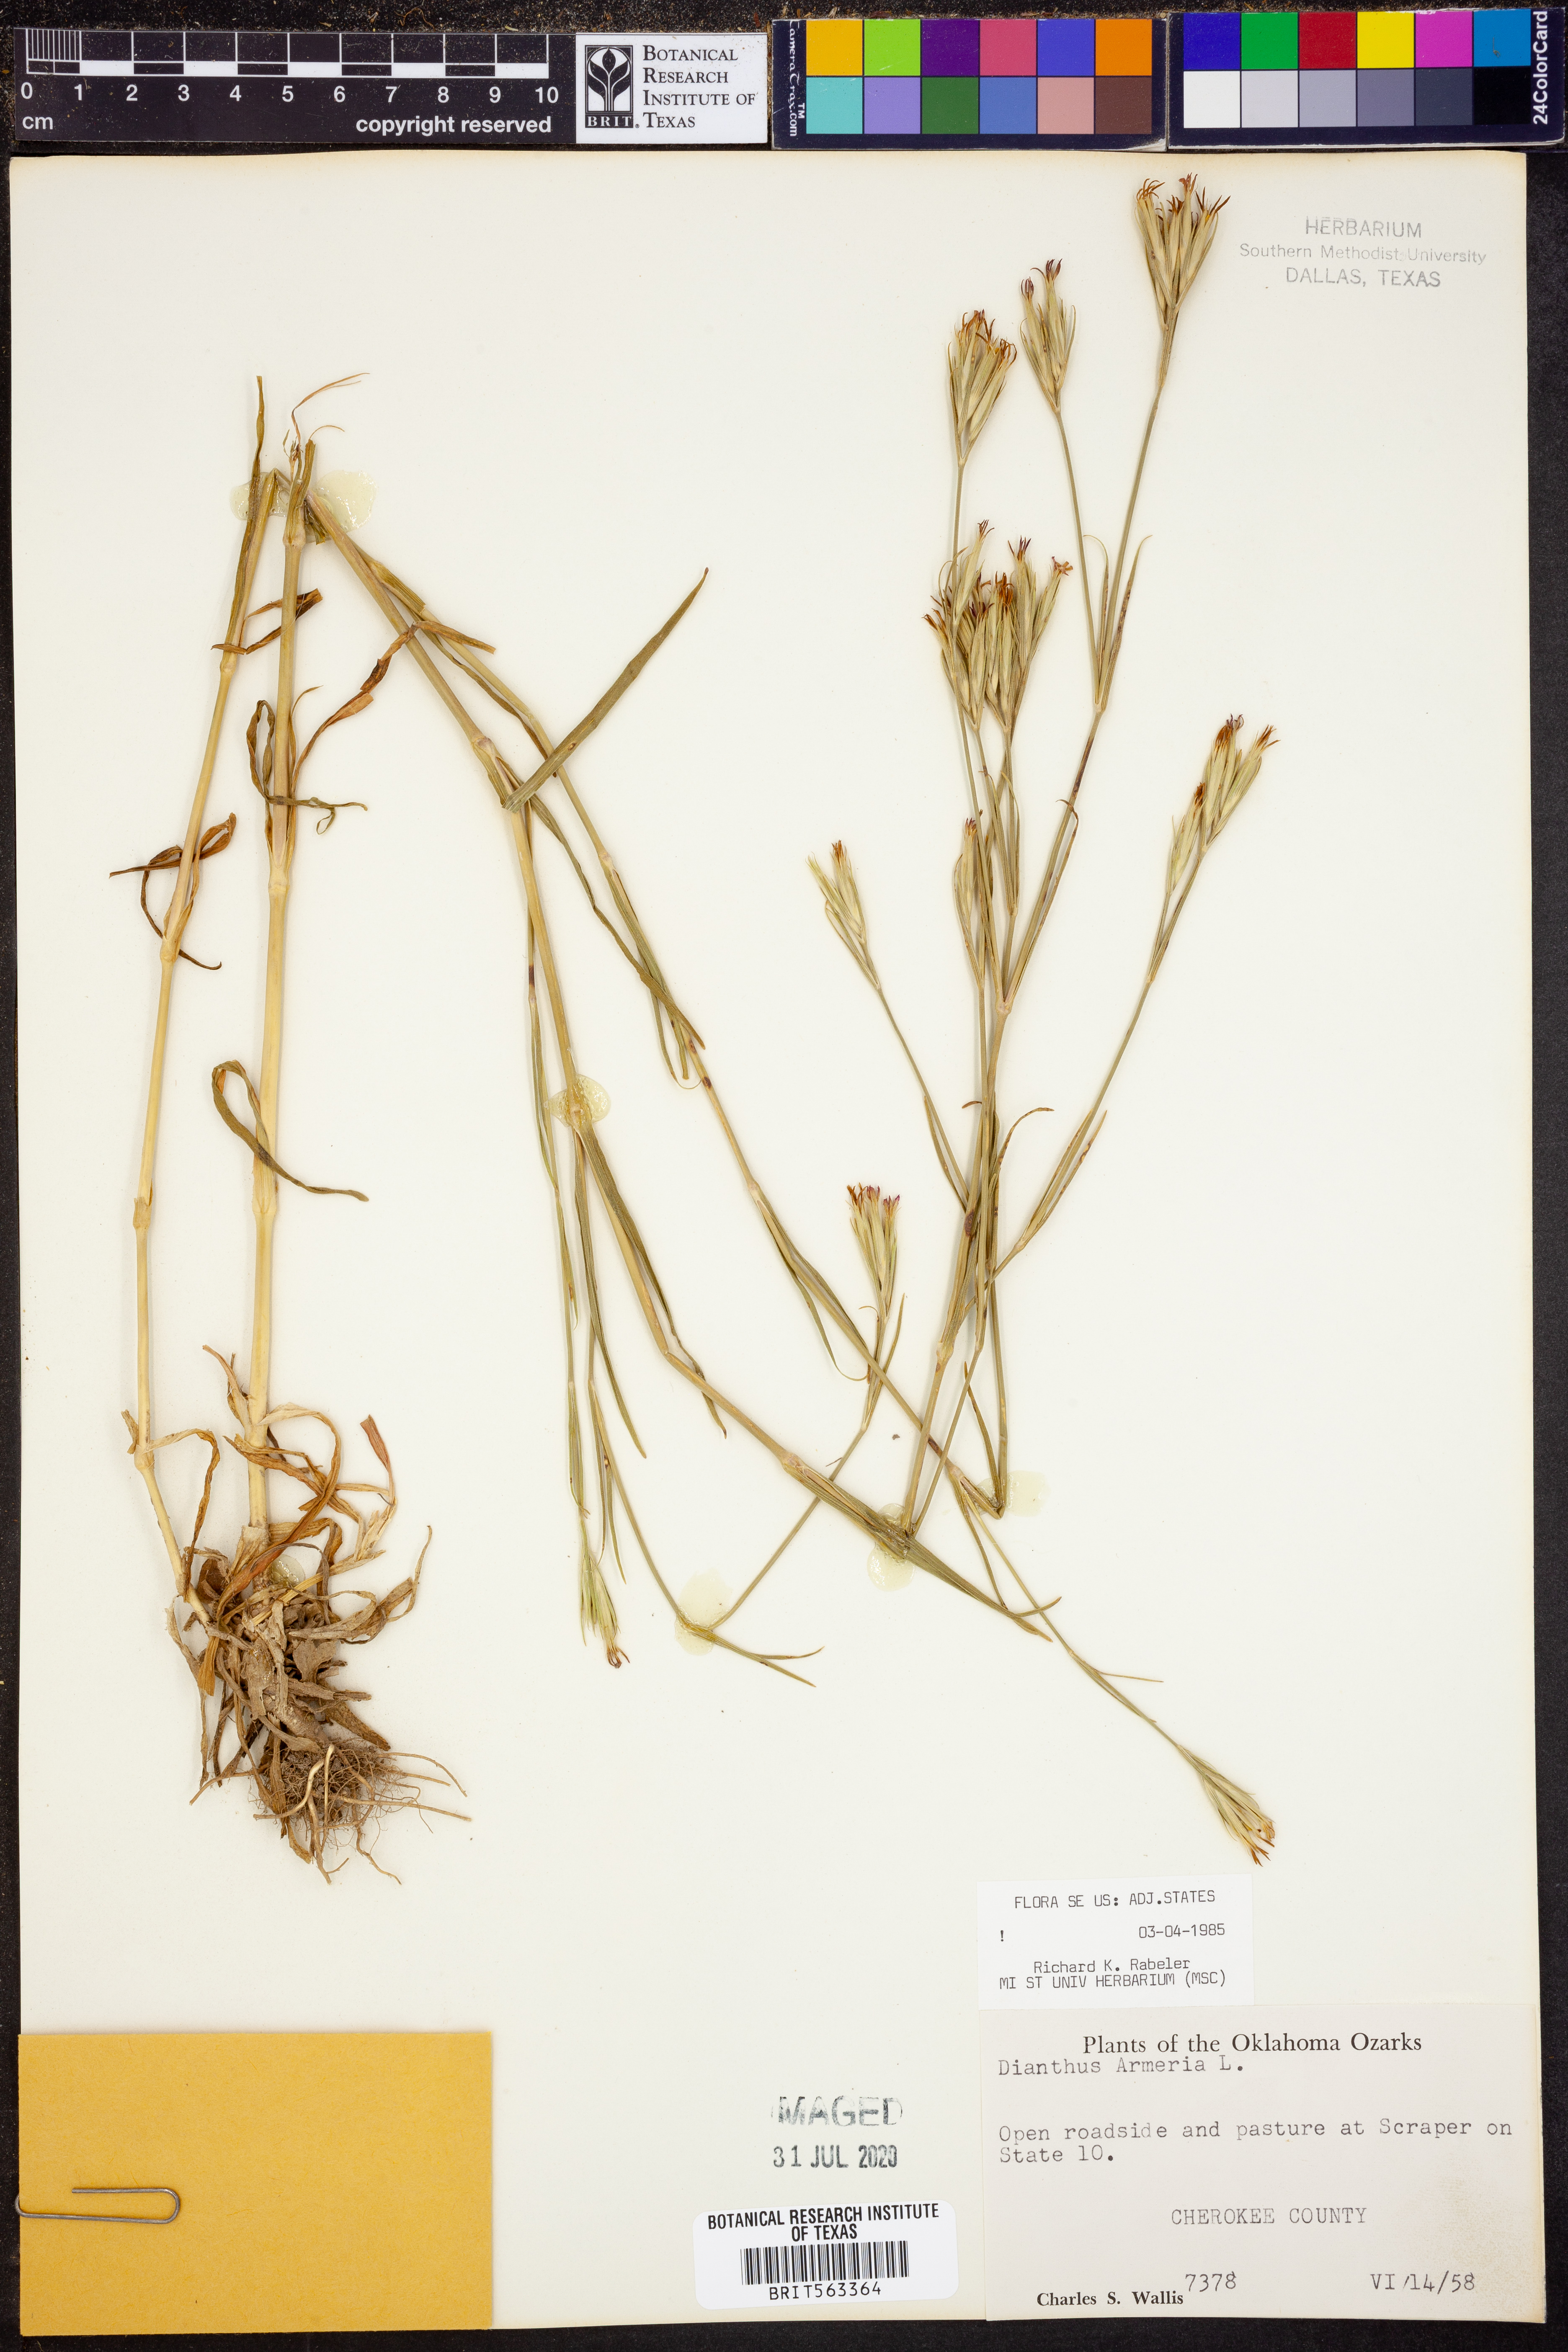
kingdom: Plantae
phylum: Tracheophyta
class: Magnoliopsida
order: Caryophyllales
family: Caryophyllaceae
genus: Dianthus
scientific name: Dianthus armeria
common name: Deptford pink
